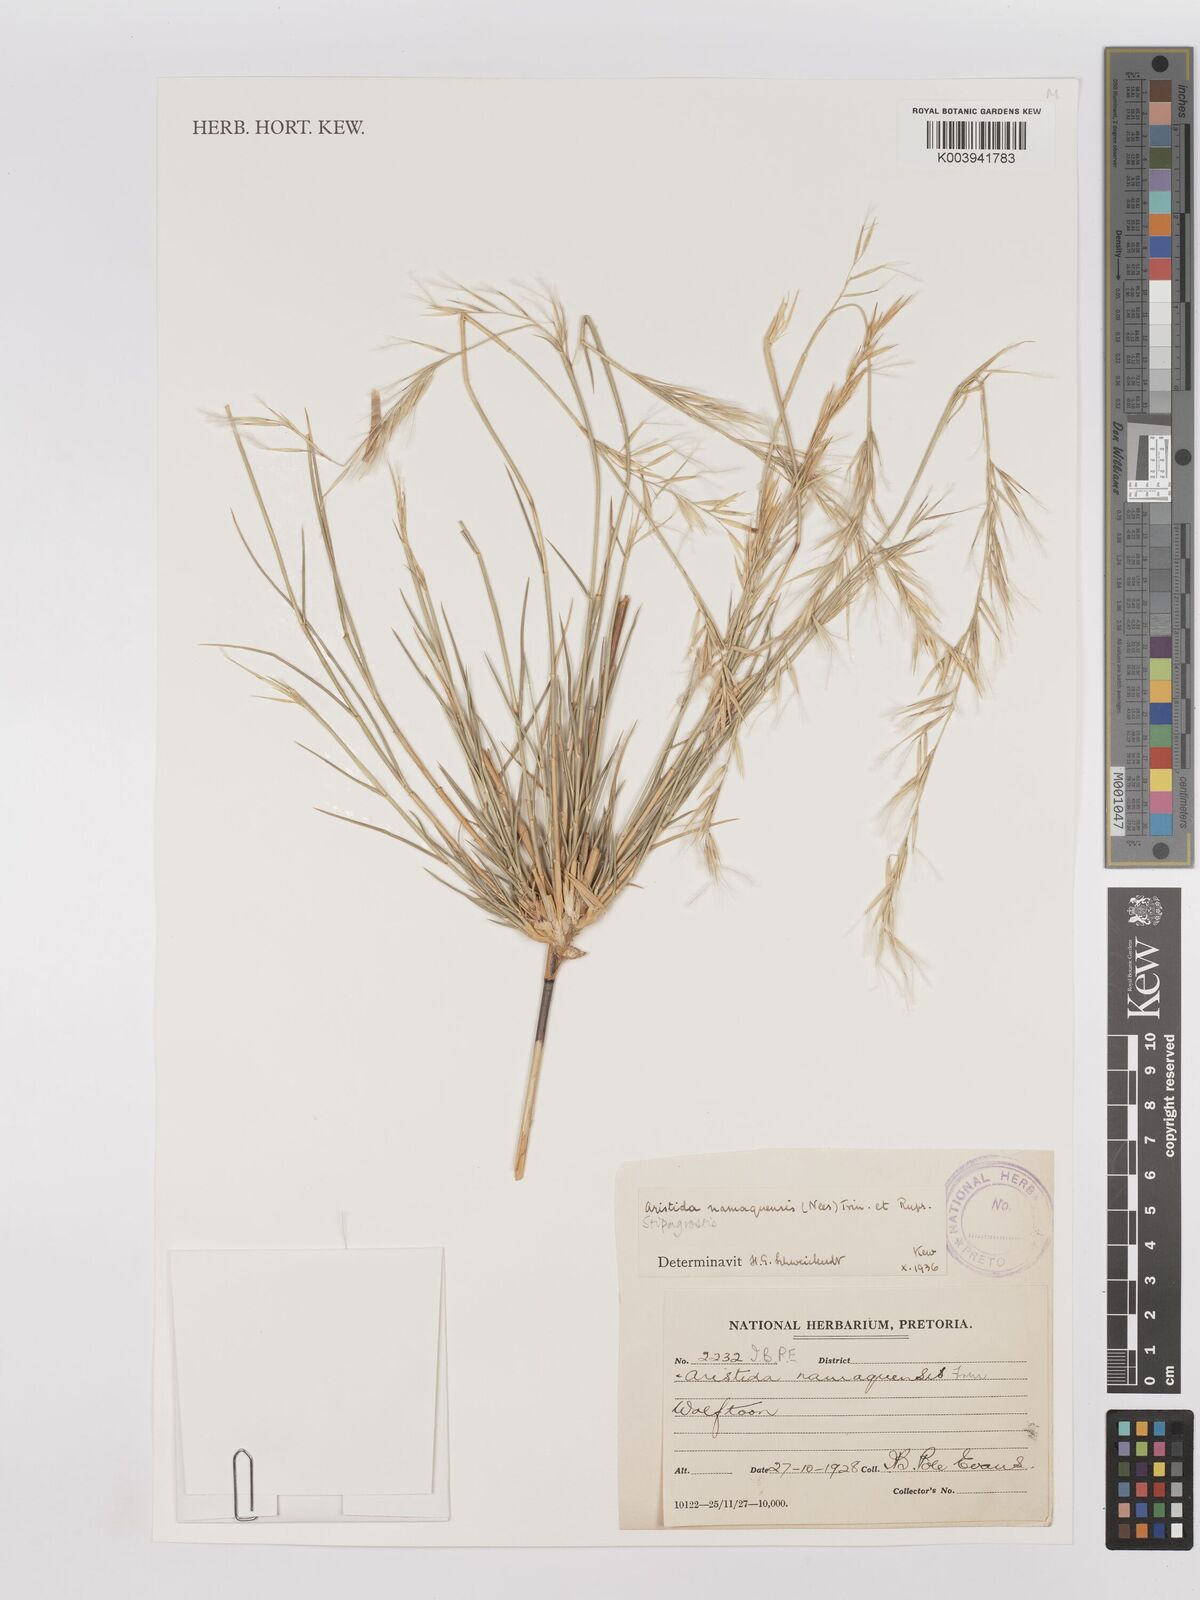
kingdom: Plantae
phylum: Tracheophyta
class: Liliopsida
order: Poales
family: Poaceae
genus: Stipagrostis
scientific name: Stipagrostis namaquensis
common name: River bushman grass
